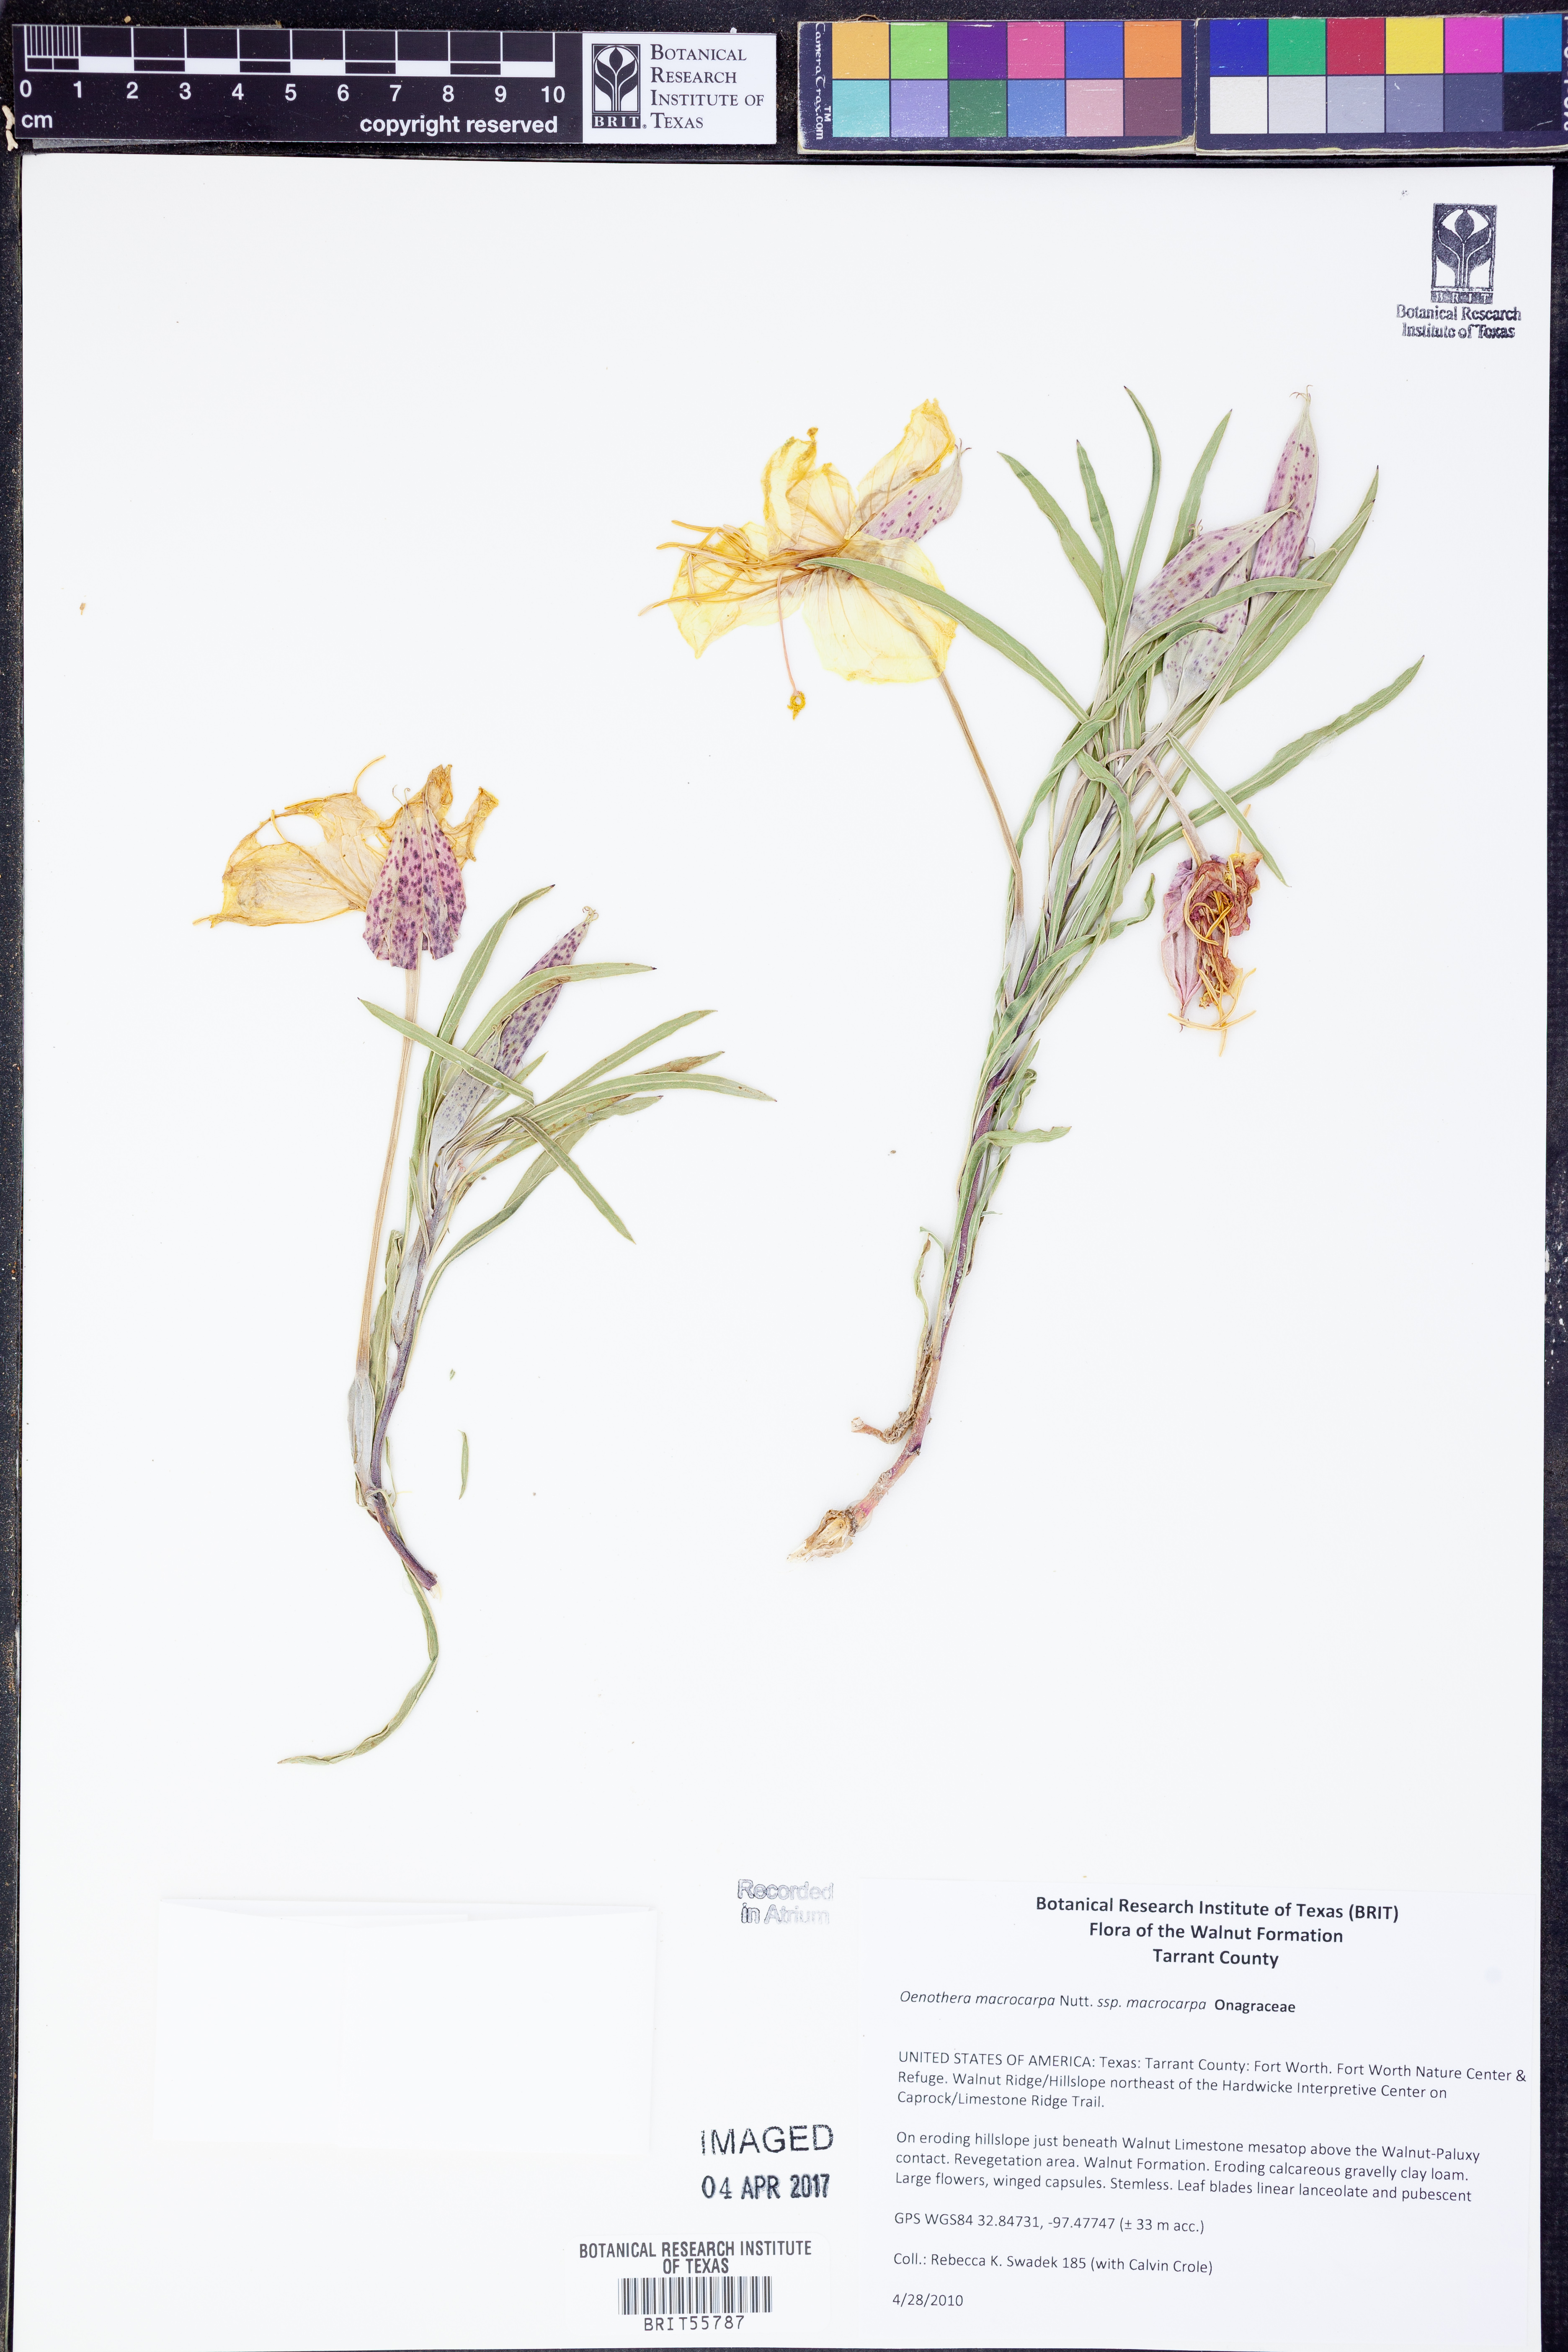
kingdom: Plantae
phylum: Tracheophyta
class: Magnoliopsida
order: Myrtales
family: Onagraceae
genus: Oenothera
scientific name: Oenothera macrocarpa
